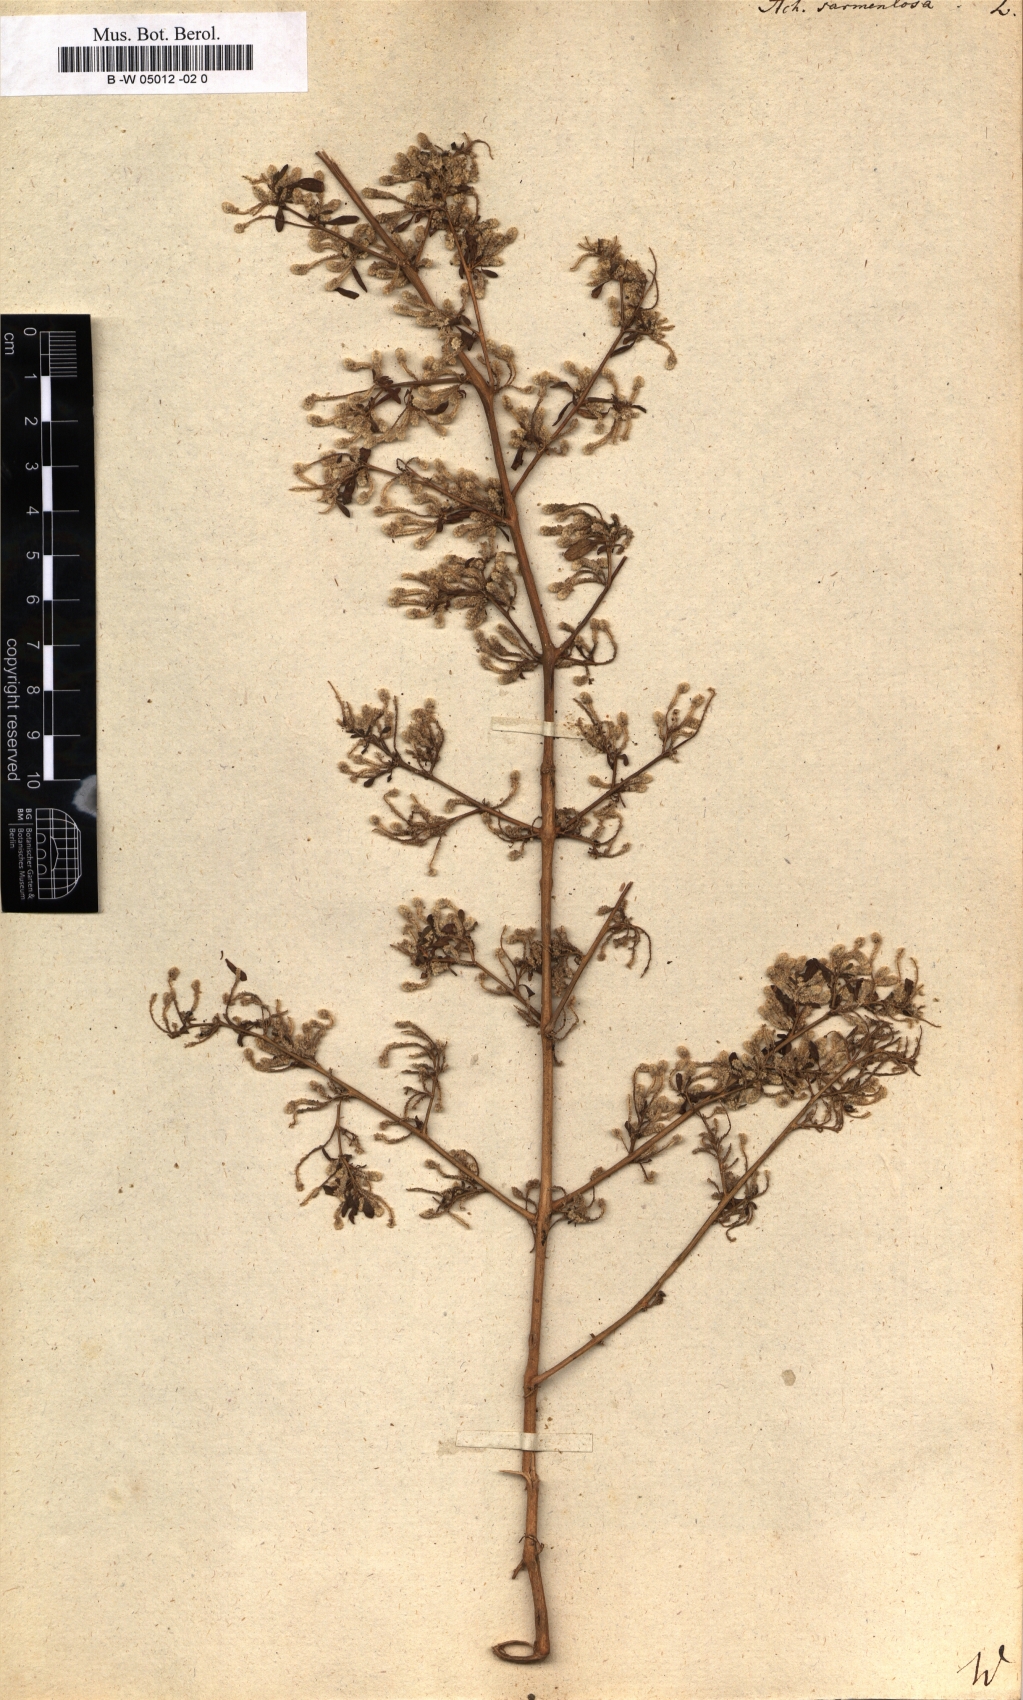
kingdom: Plantae
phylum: Tracheophyta
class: Magnoliopsida
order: Caryophyllales
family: Amaranthaceae
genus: Achyranthes
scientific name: Achyranthes sarmentosa
